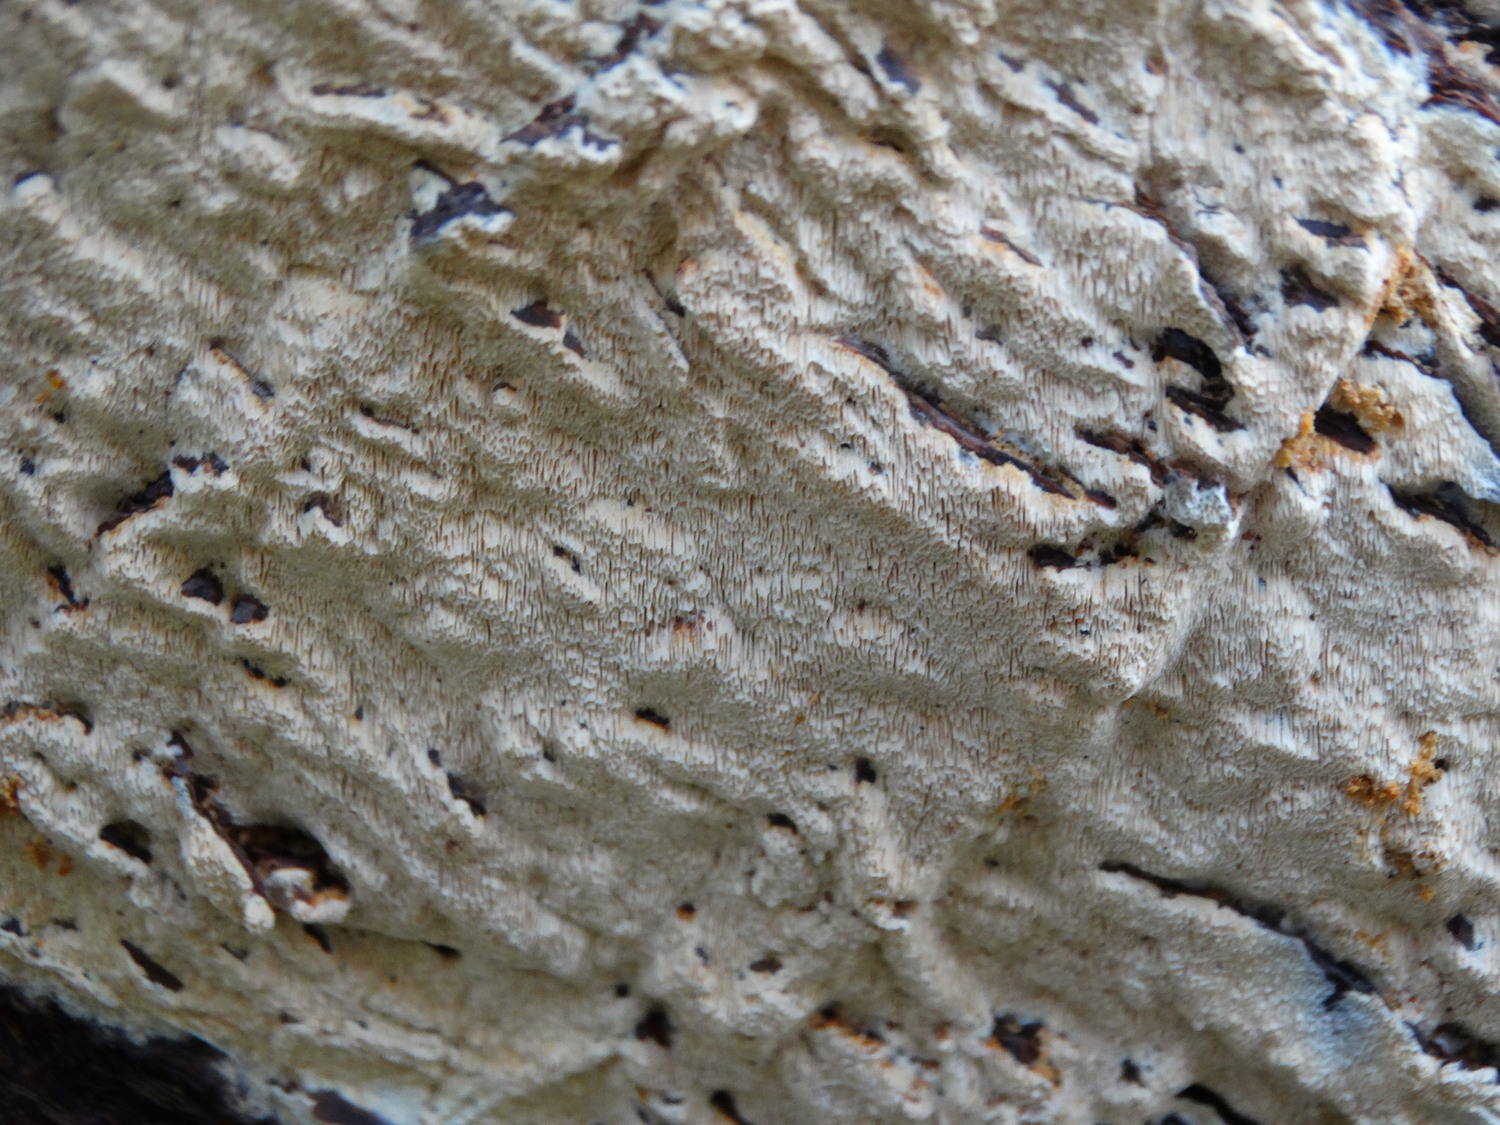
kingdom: Fungi
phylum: Basidiomycota
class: Agaricomycetes
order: Corticiales
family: Corticiaceae
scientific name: Corticiaceae
